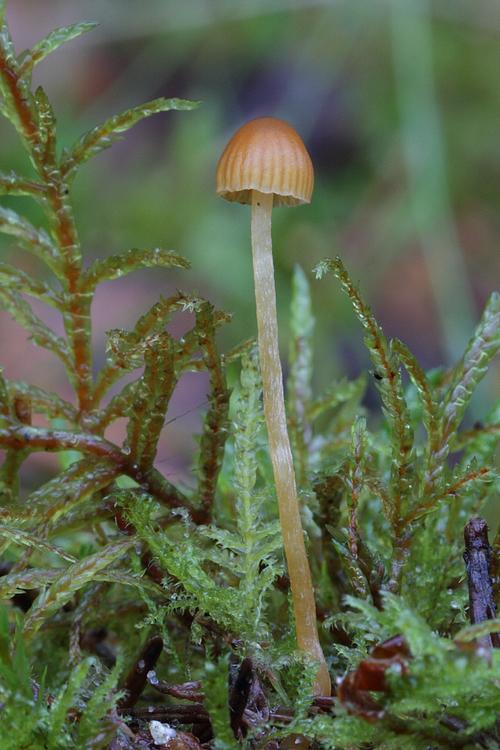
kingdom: Fungi
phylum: Basidiomycota
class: Agaricomycetes
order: Agaricales
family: Hymenogastraceae
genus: Galerina
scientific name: Galerina calyptrata
